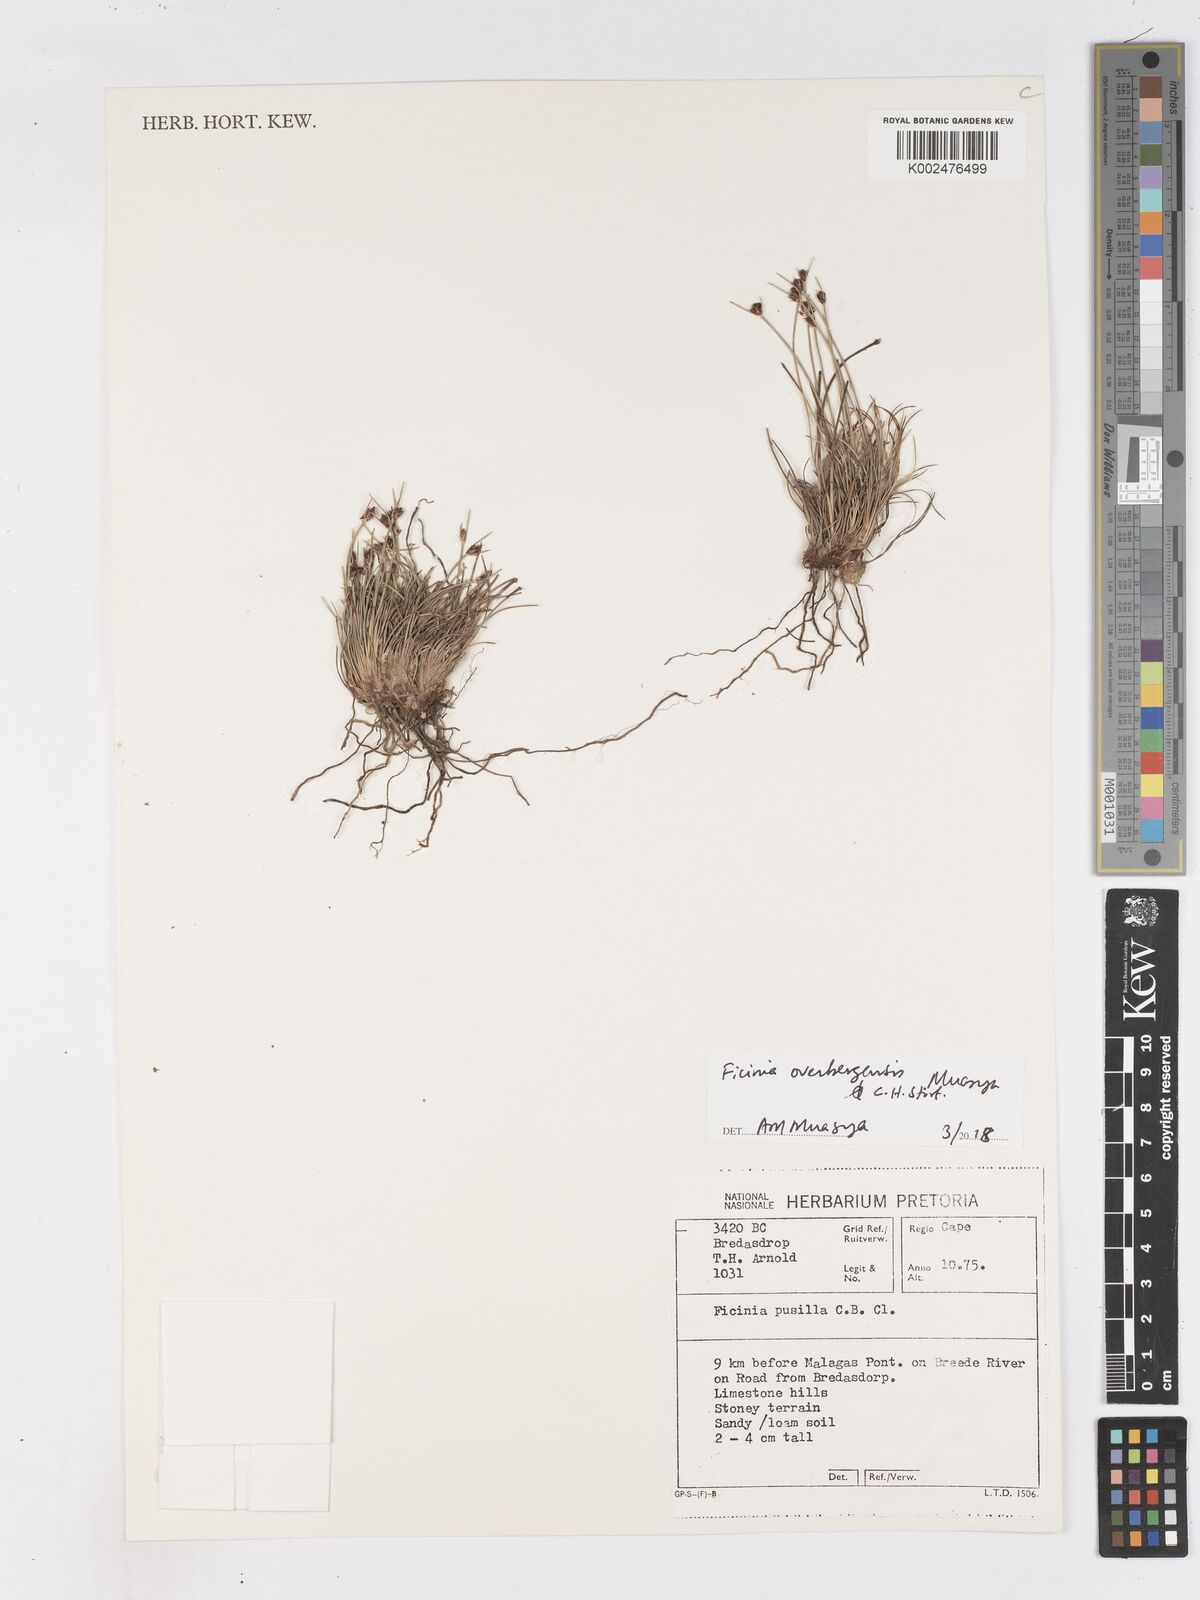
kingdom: Plantae
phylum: Tracheophyta
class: Liliopsida
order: Poales
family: Cyperaceae
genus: Ficinia
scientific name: Ficinia overbergensis
